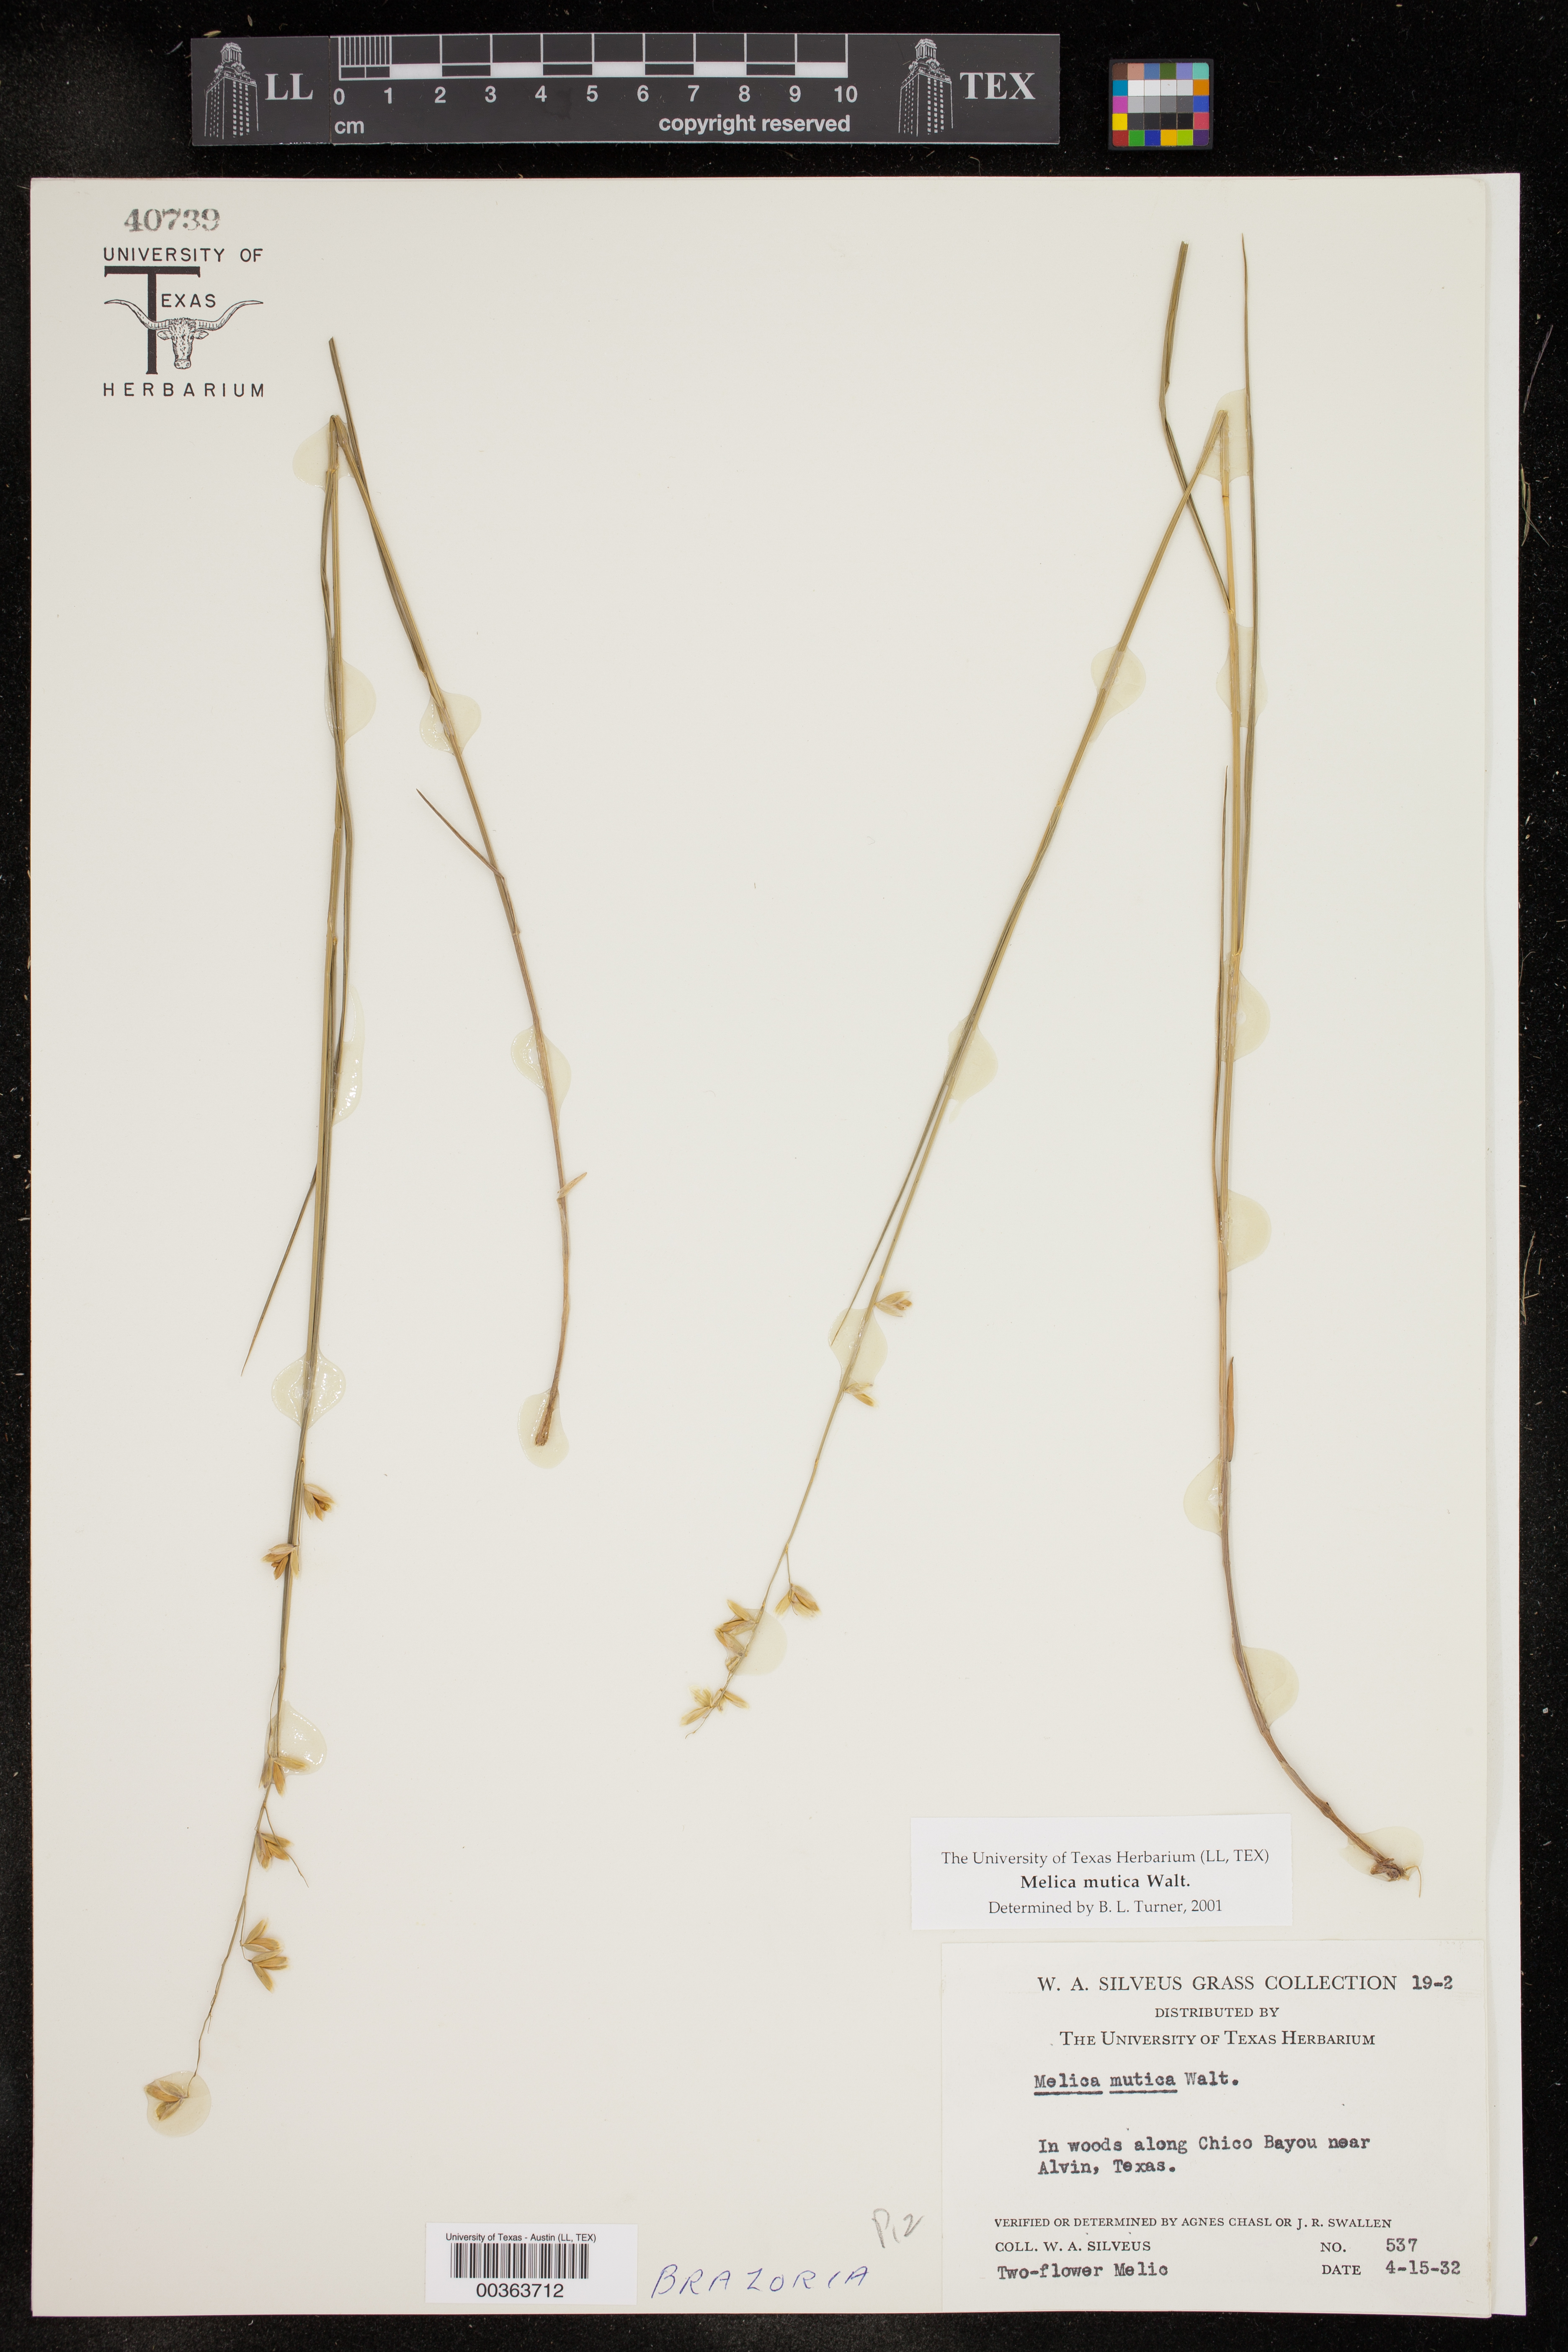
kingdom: Plantae
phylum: Tracheophyta
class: Liliopsida
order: Poales
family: Poaceae
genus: Melica
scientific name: Melica mutica
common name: Two-flower melic
